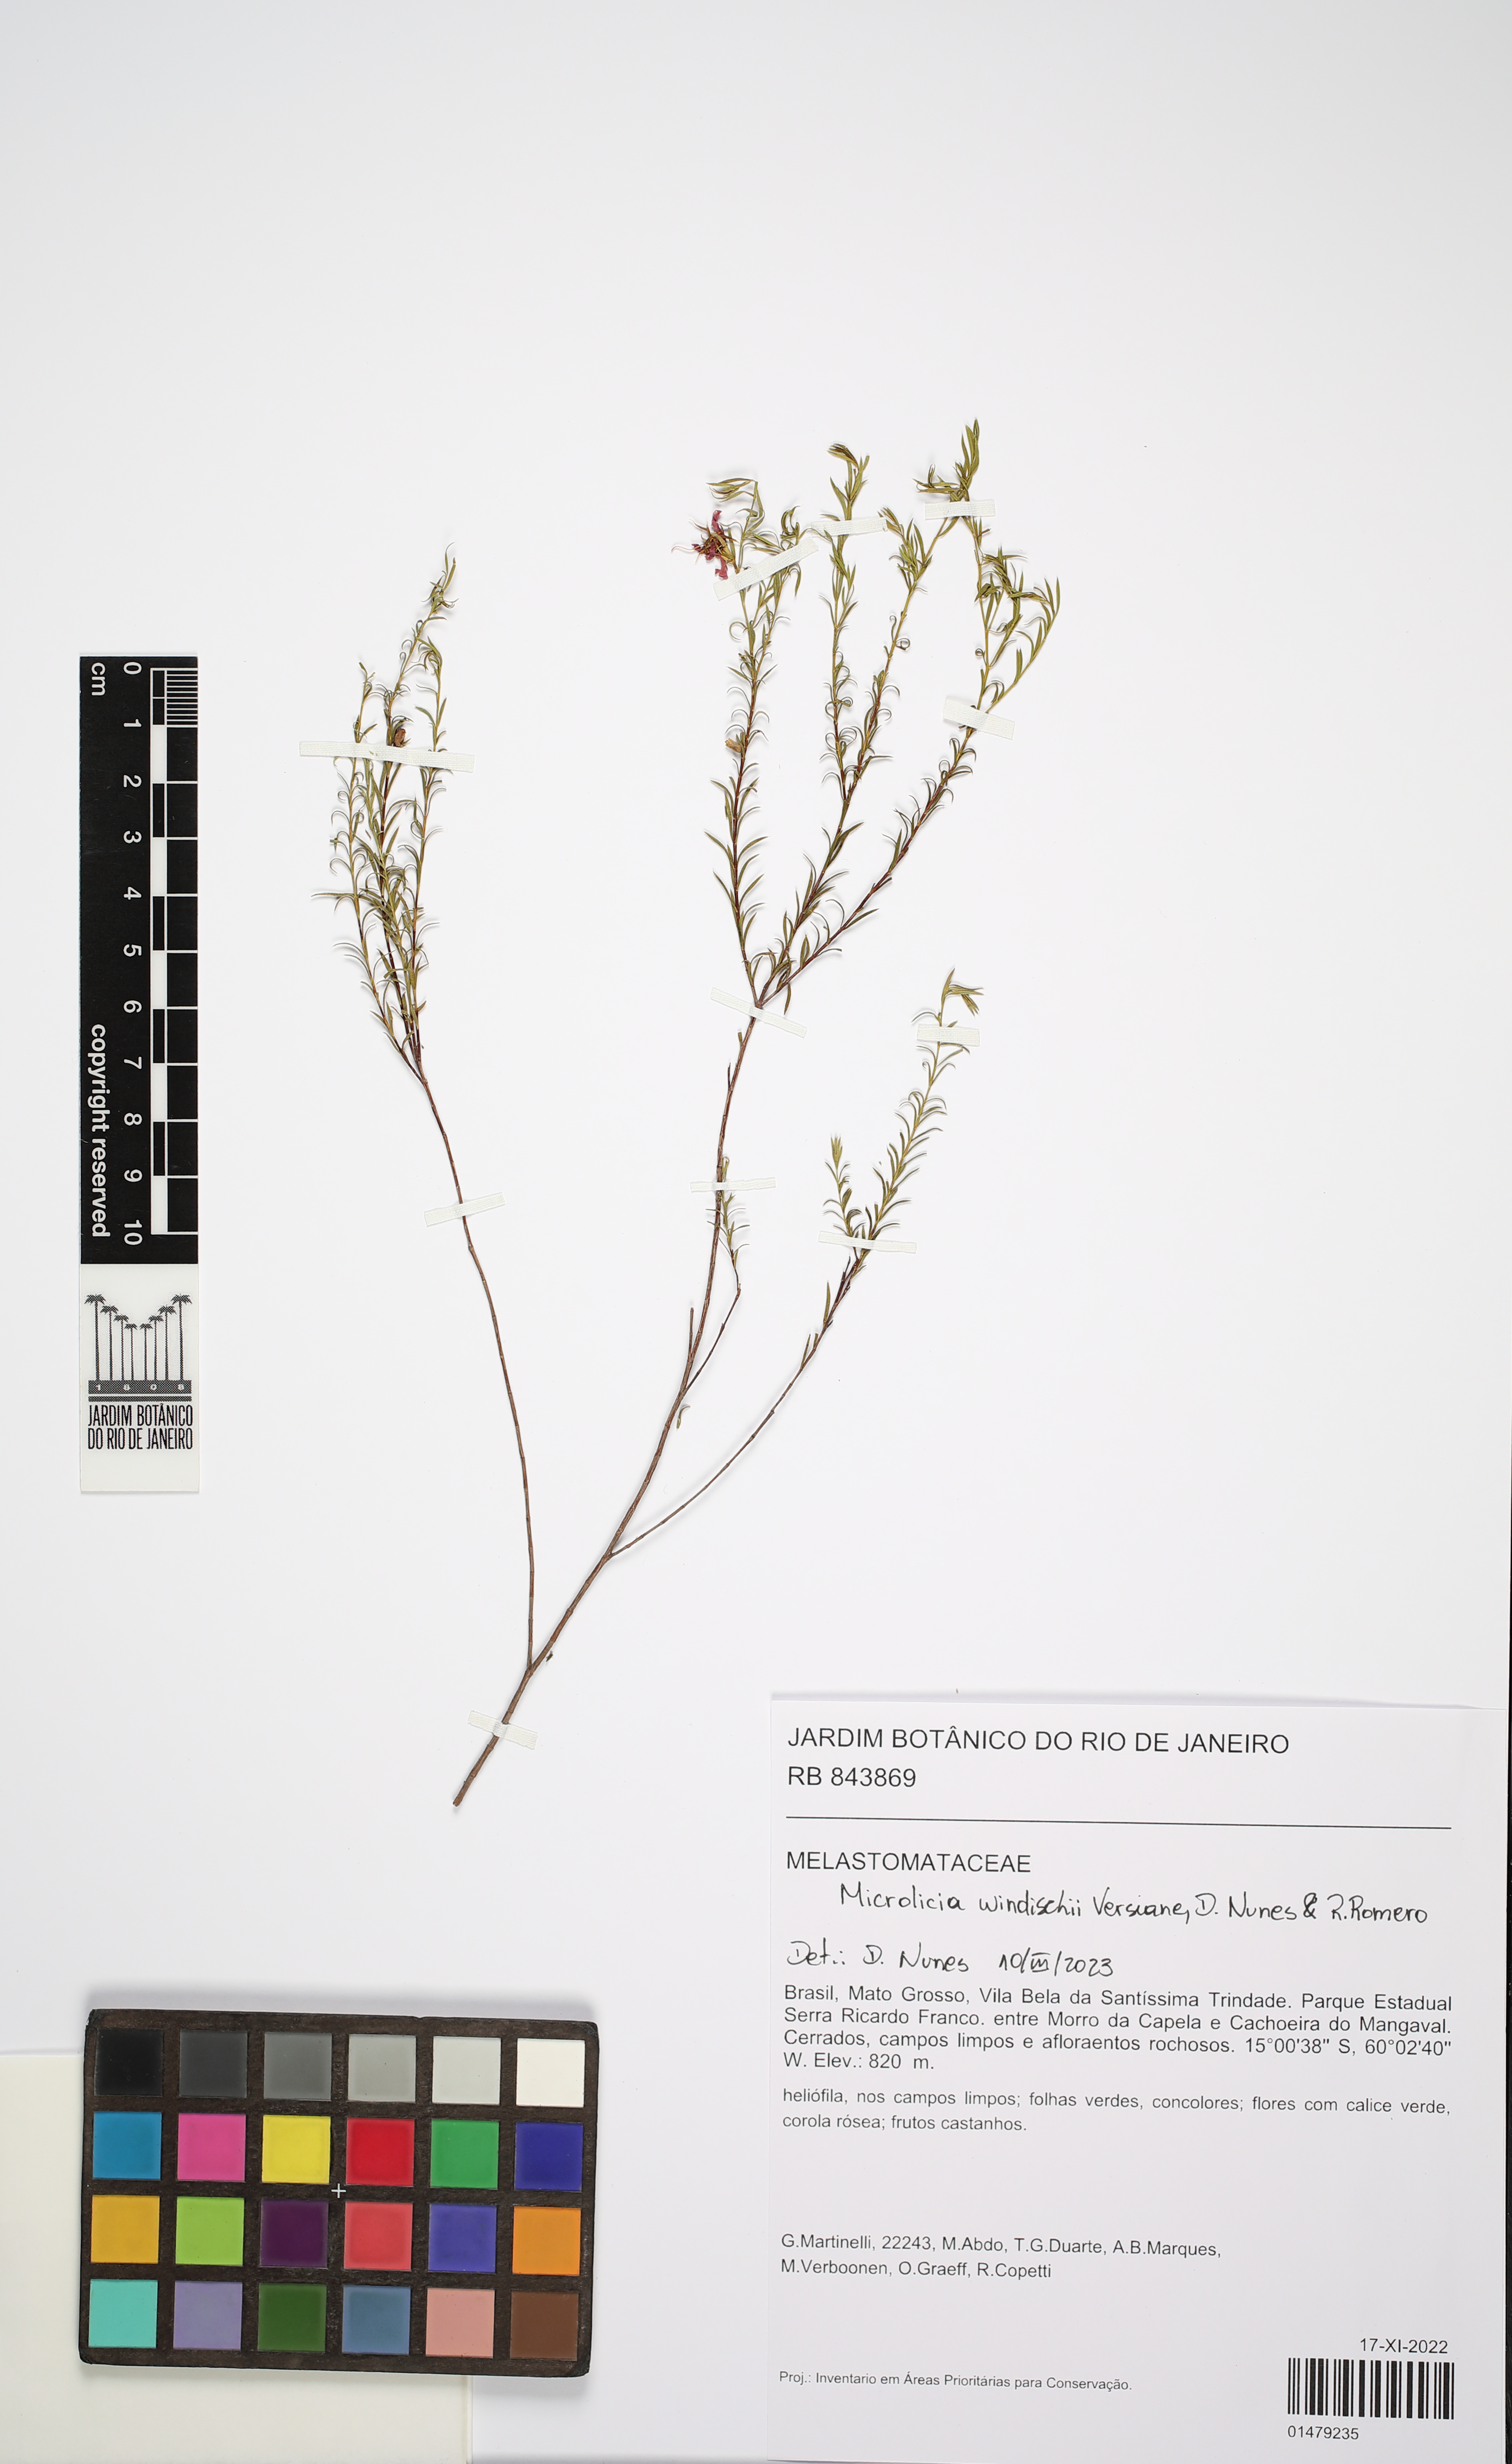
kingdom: Plantae
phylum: Tracheophyta
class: Magnoliopsida
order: Myrtales
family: Melastomataceae
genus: Microlicia
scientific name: Microlicia windischii
